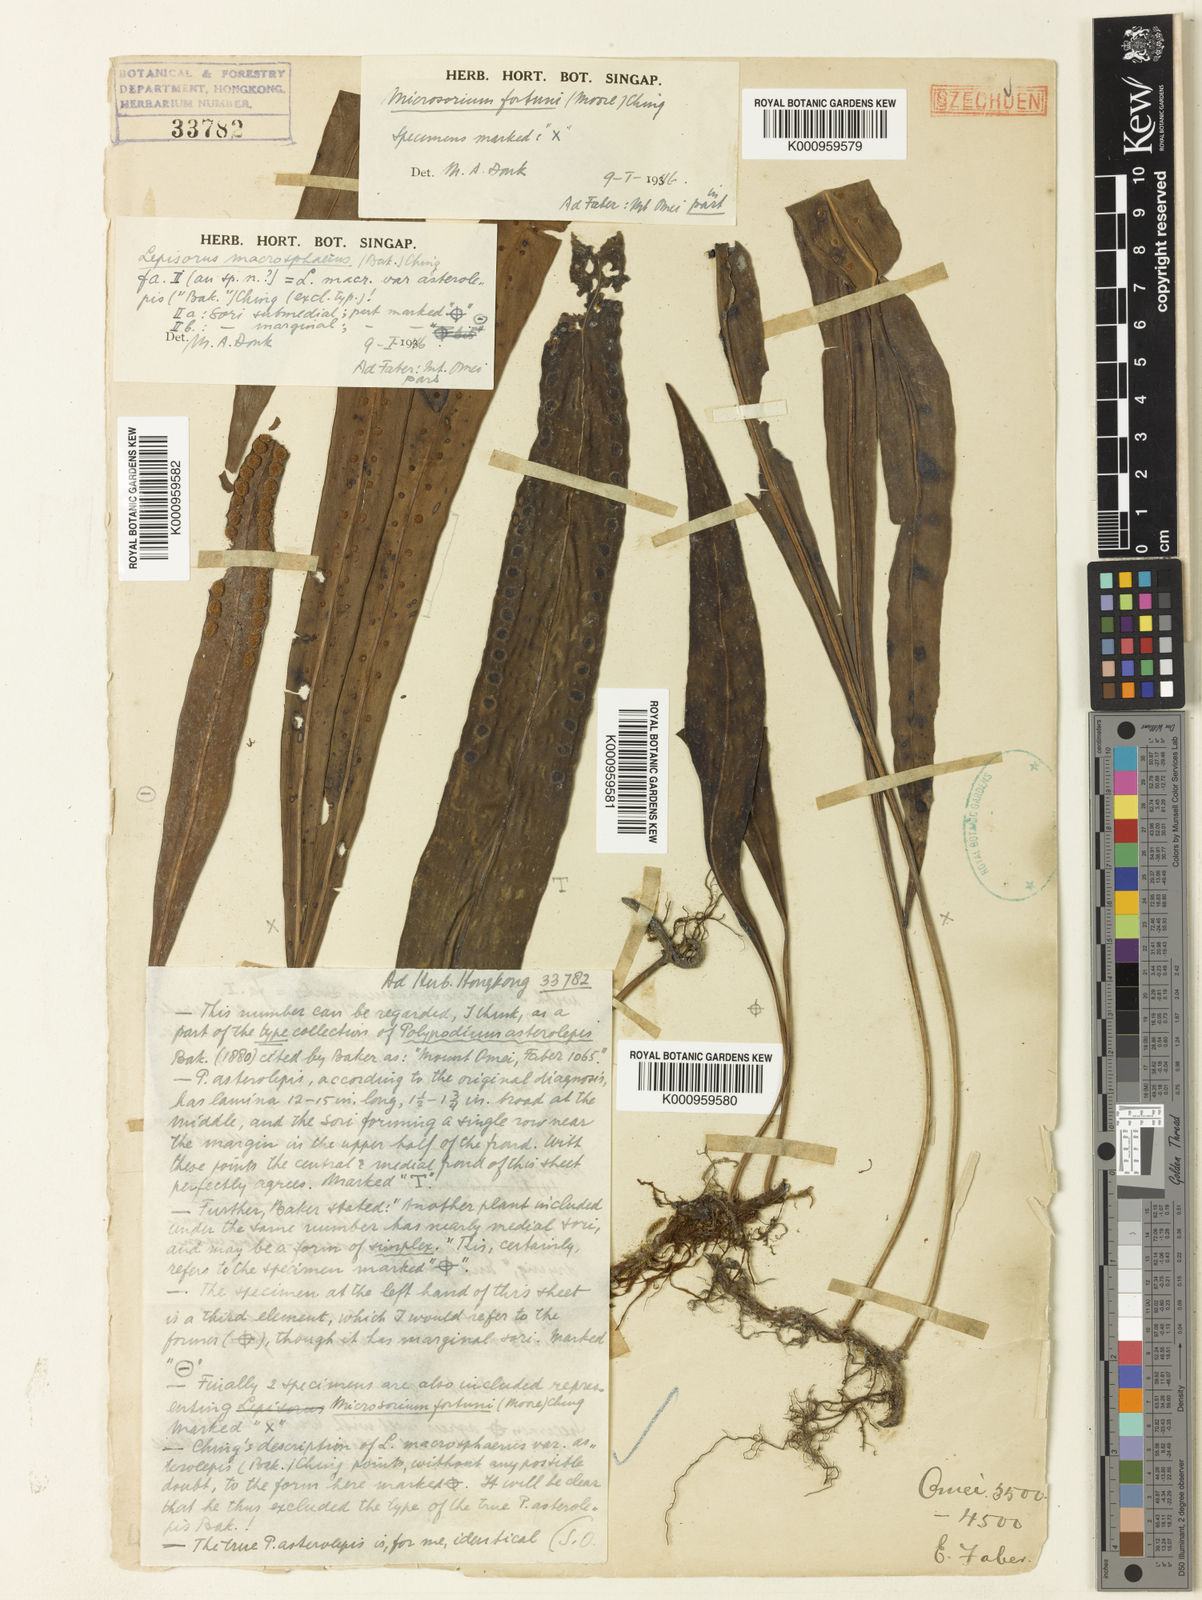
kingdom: Plantae
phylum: Tracheophyta
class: Polypodiopsida
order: Polypodiales
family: Polypodiaceae
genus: Lepisorus
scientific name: Lepisorus asterolepis
